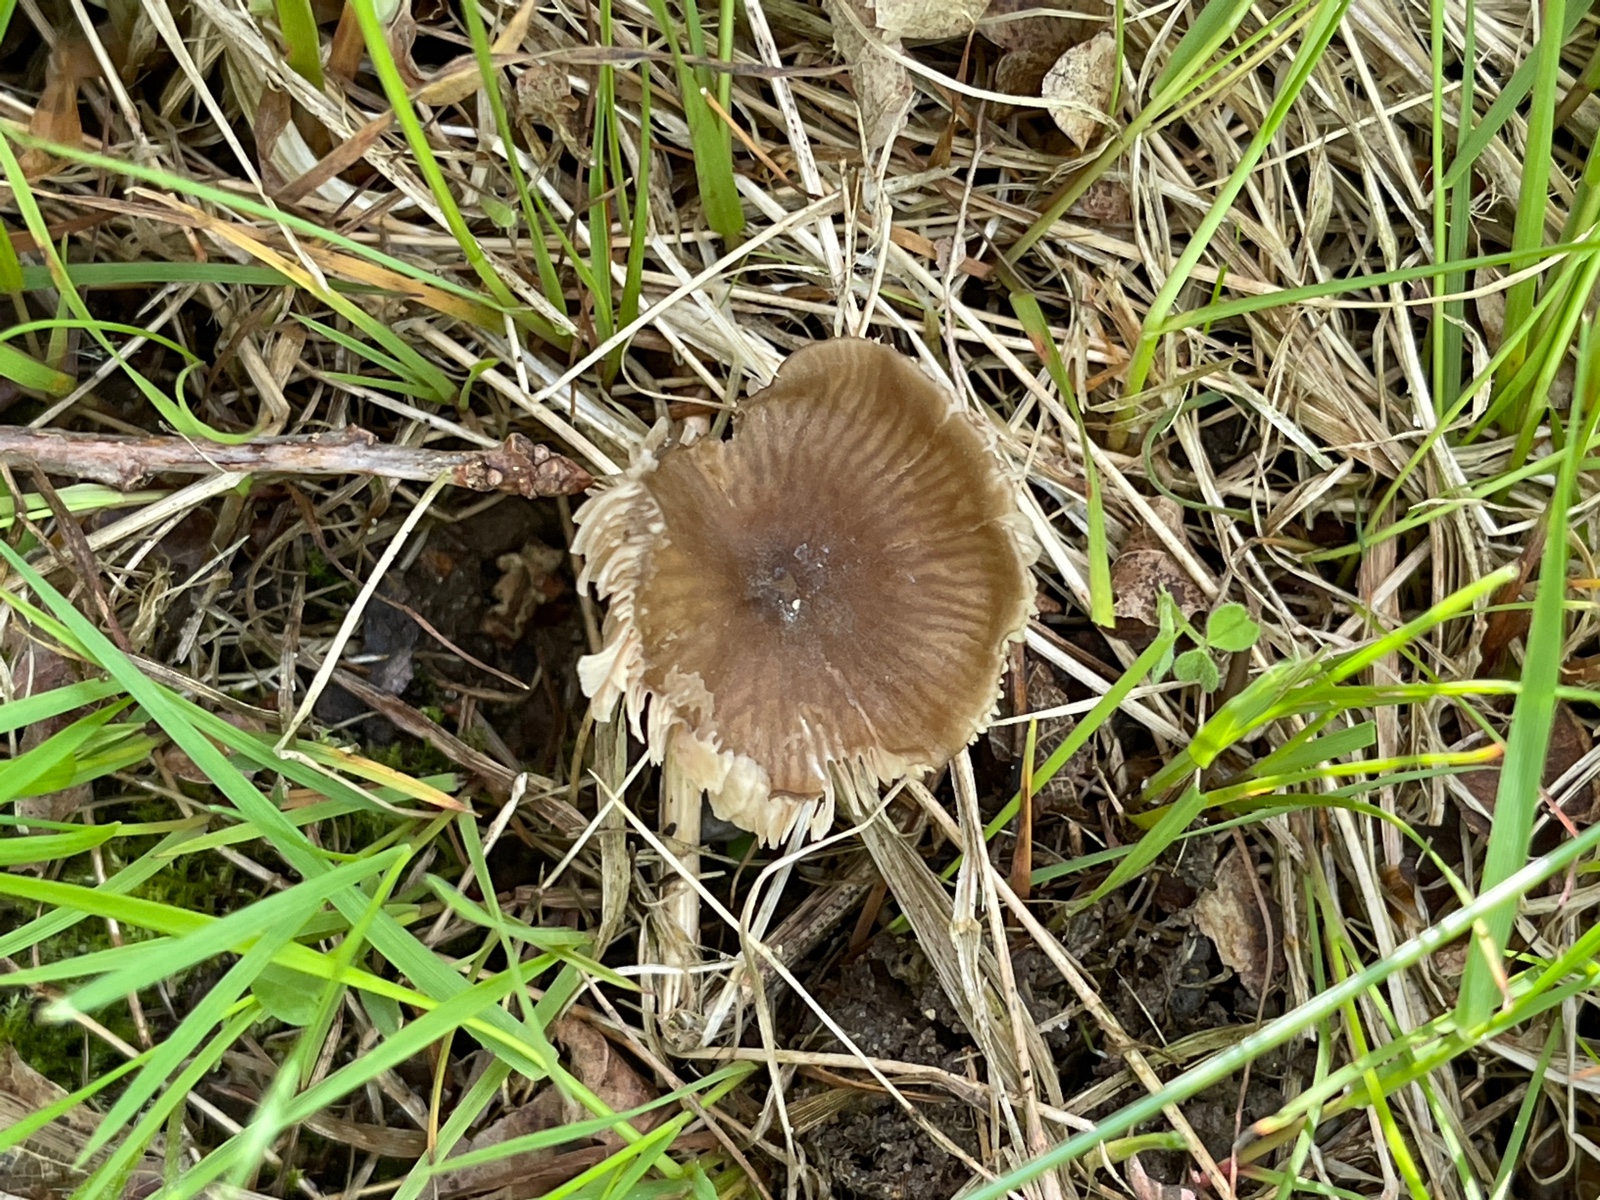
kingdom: Fungi
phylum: Basidiomycota
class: Agaricomycetes
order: Agaricales
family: Entolomataceae
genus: Entoloma
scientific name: Entoloma conferendum
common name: stjernesporet rødblad
